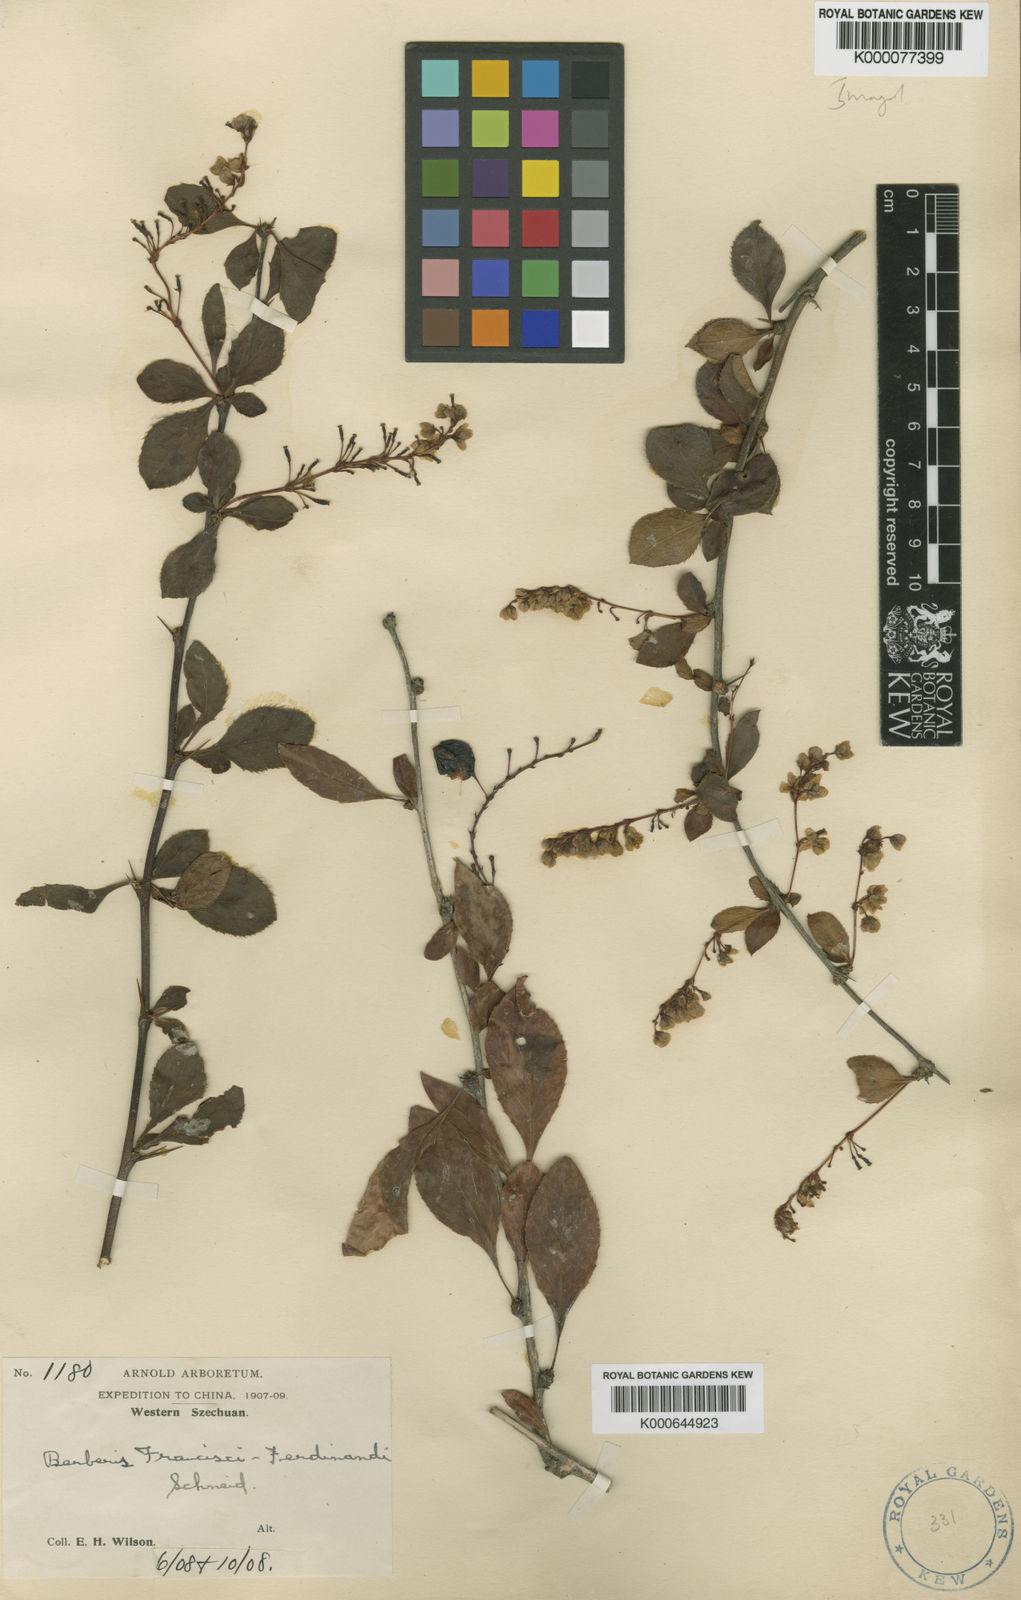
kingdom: Plantae
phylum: Tracheophyta
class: Magnoliopsida
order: Ranunculales
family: Berberidaceae
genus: Berberis
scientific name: Berberis francisci-ferdinandi
